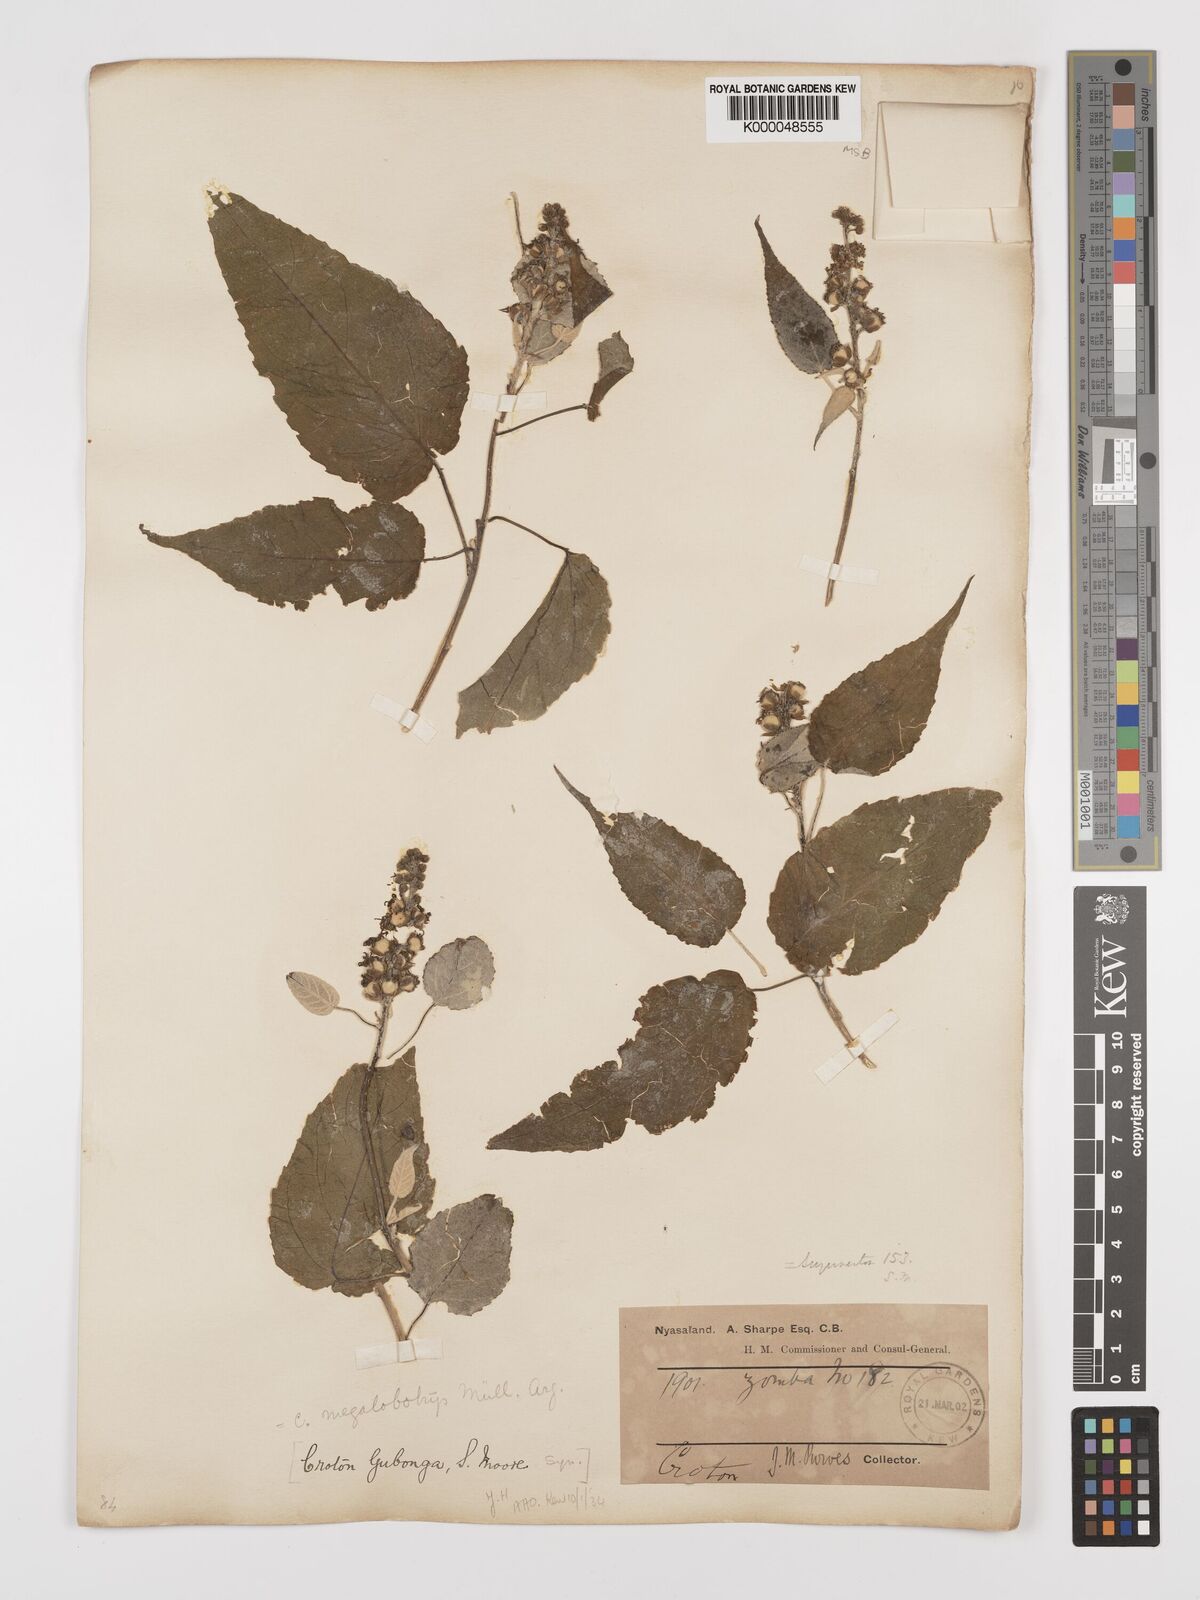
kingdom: Plantae
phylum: Tracheophyta
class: Magnoliopsida
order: Malpighiales
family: Euphorbiaceae
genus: Croton
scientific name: Croton
